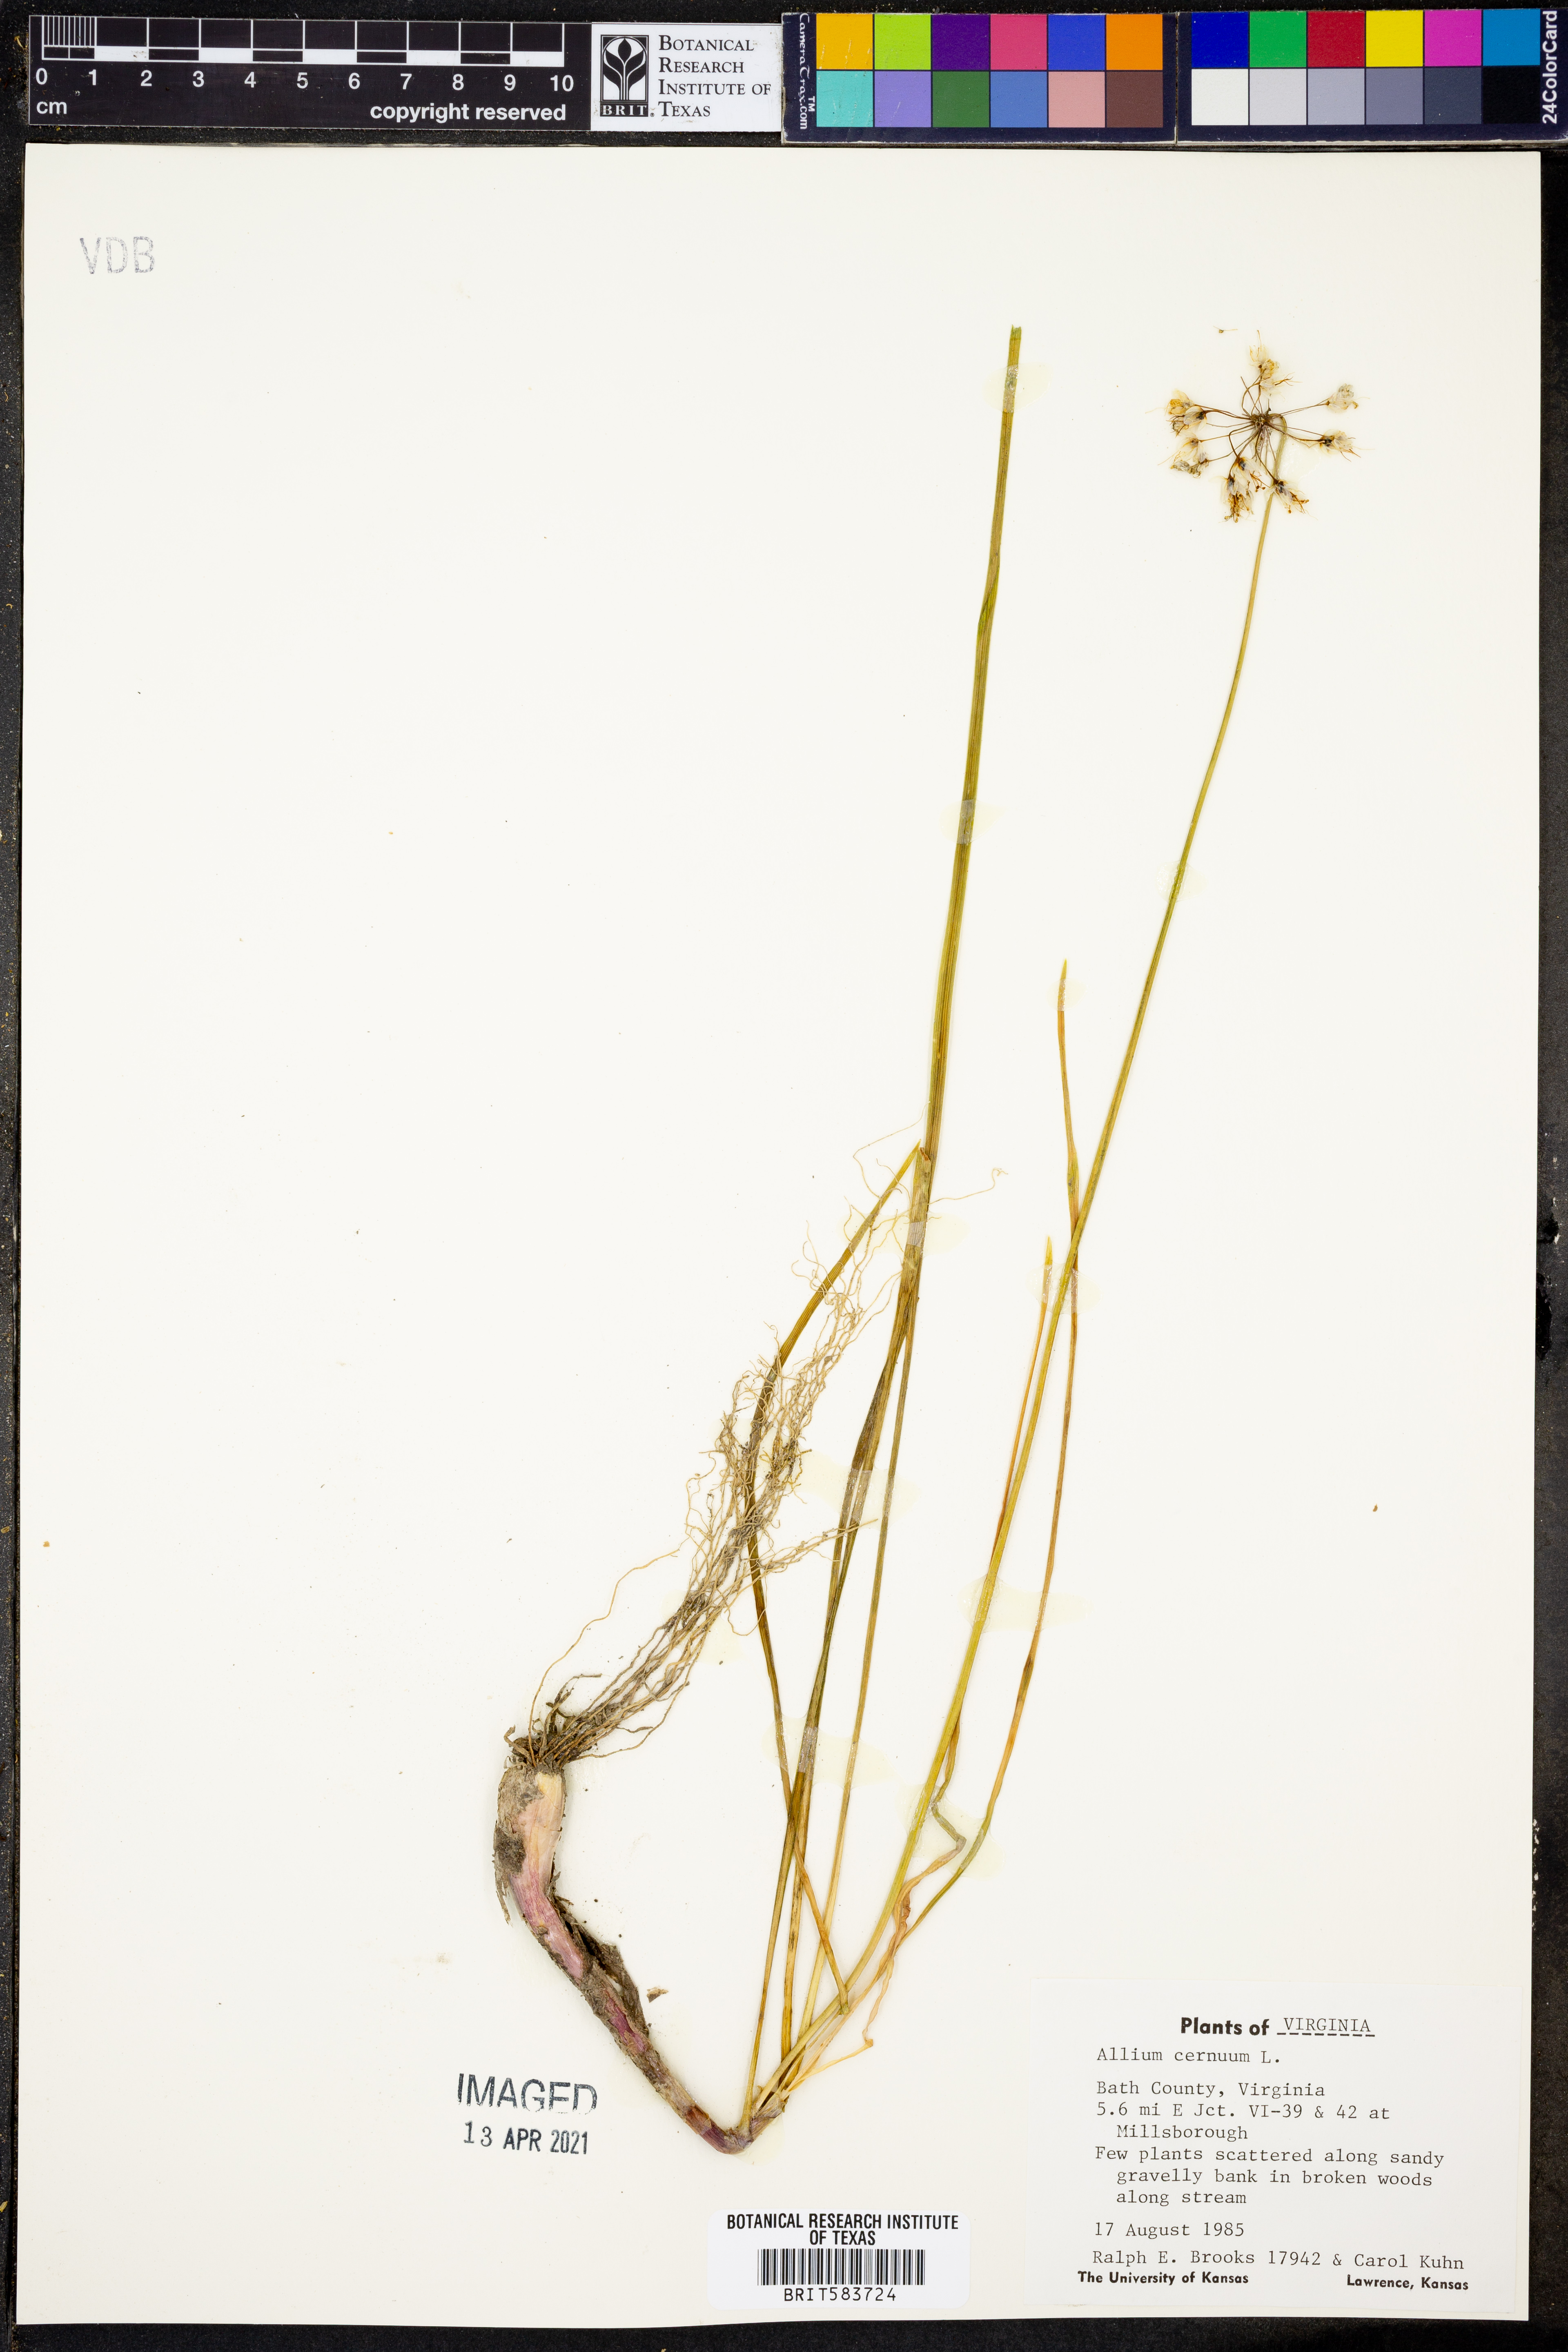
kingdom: Plantae
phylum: Tracheophyta
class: Liliopsida
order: Asparagales
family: Amaryllidaceae
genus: Allium
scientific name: Allium cernuum
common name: Nodding onion
